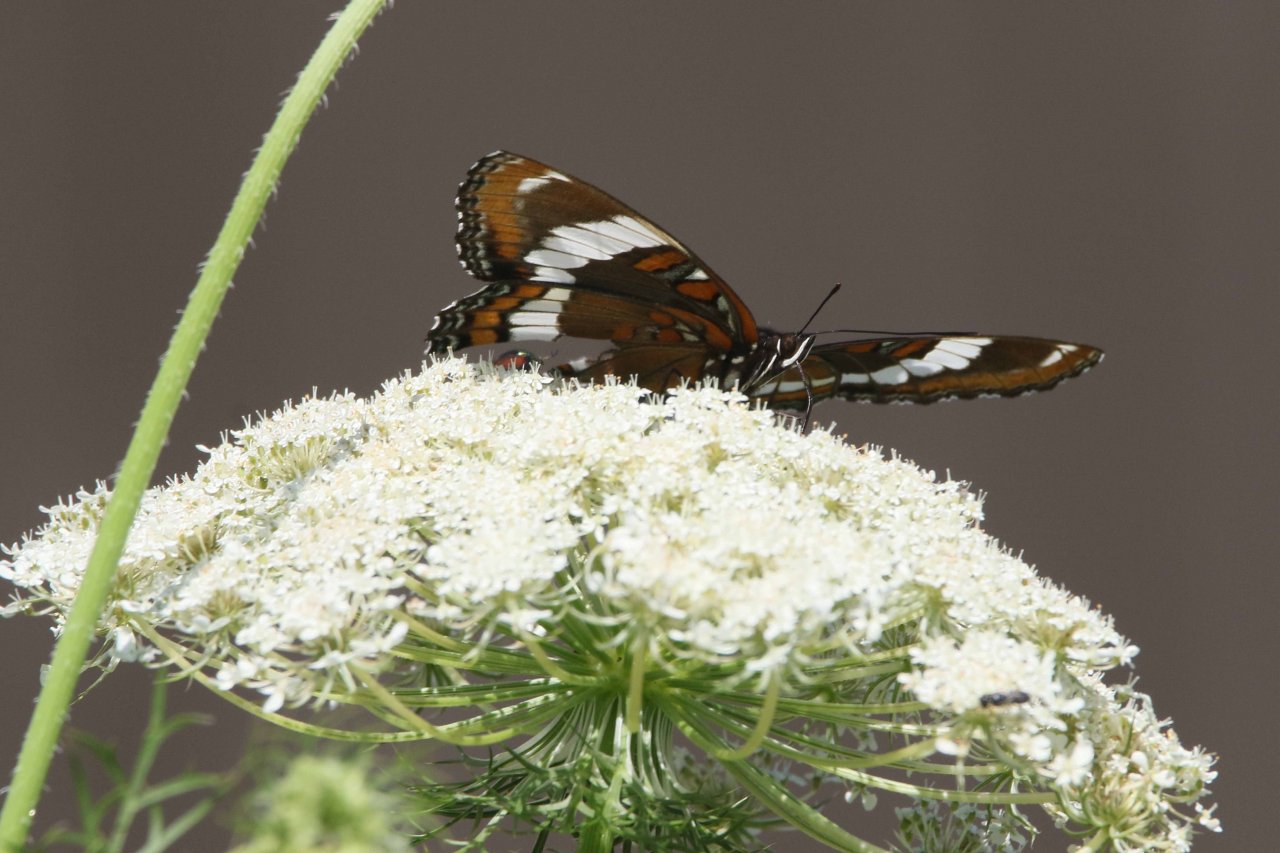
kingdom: Animalia
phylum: Arthropoda
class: Insecta
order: Lepidoptera
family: Nymphalidae
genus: Limenitis
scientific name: Limenitis arthemis
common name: Red-spotted Admiral
